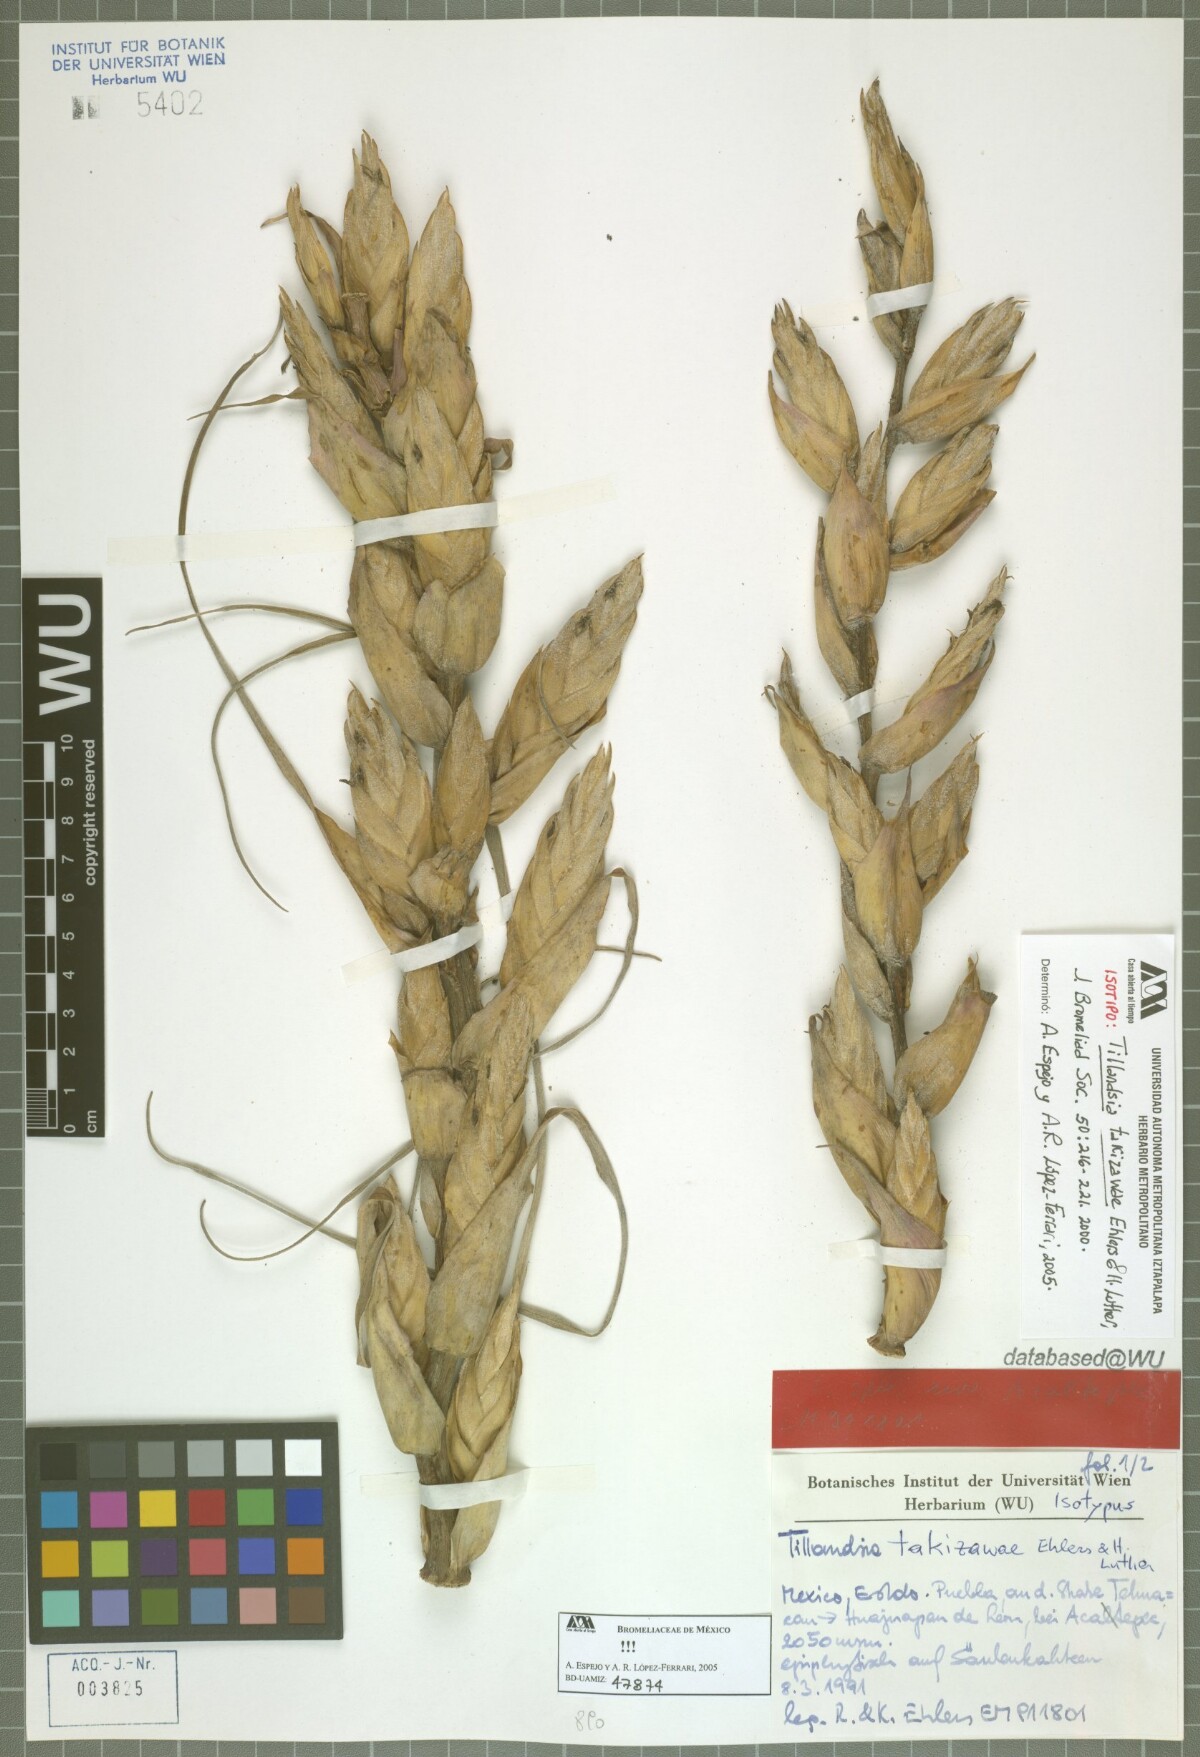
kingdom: Plantae
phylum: Tracheophyta
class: Liliopsida
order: Poales
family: Bromeliaceae
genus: Tillandsia
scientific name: Tillandsia takizawae
